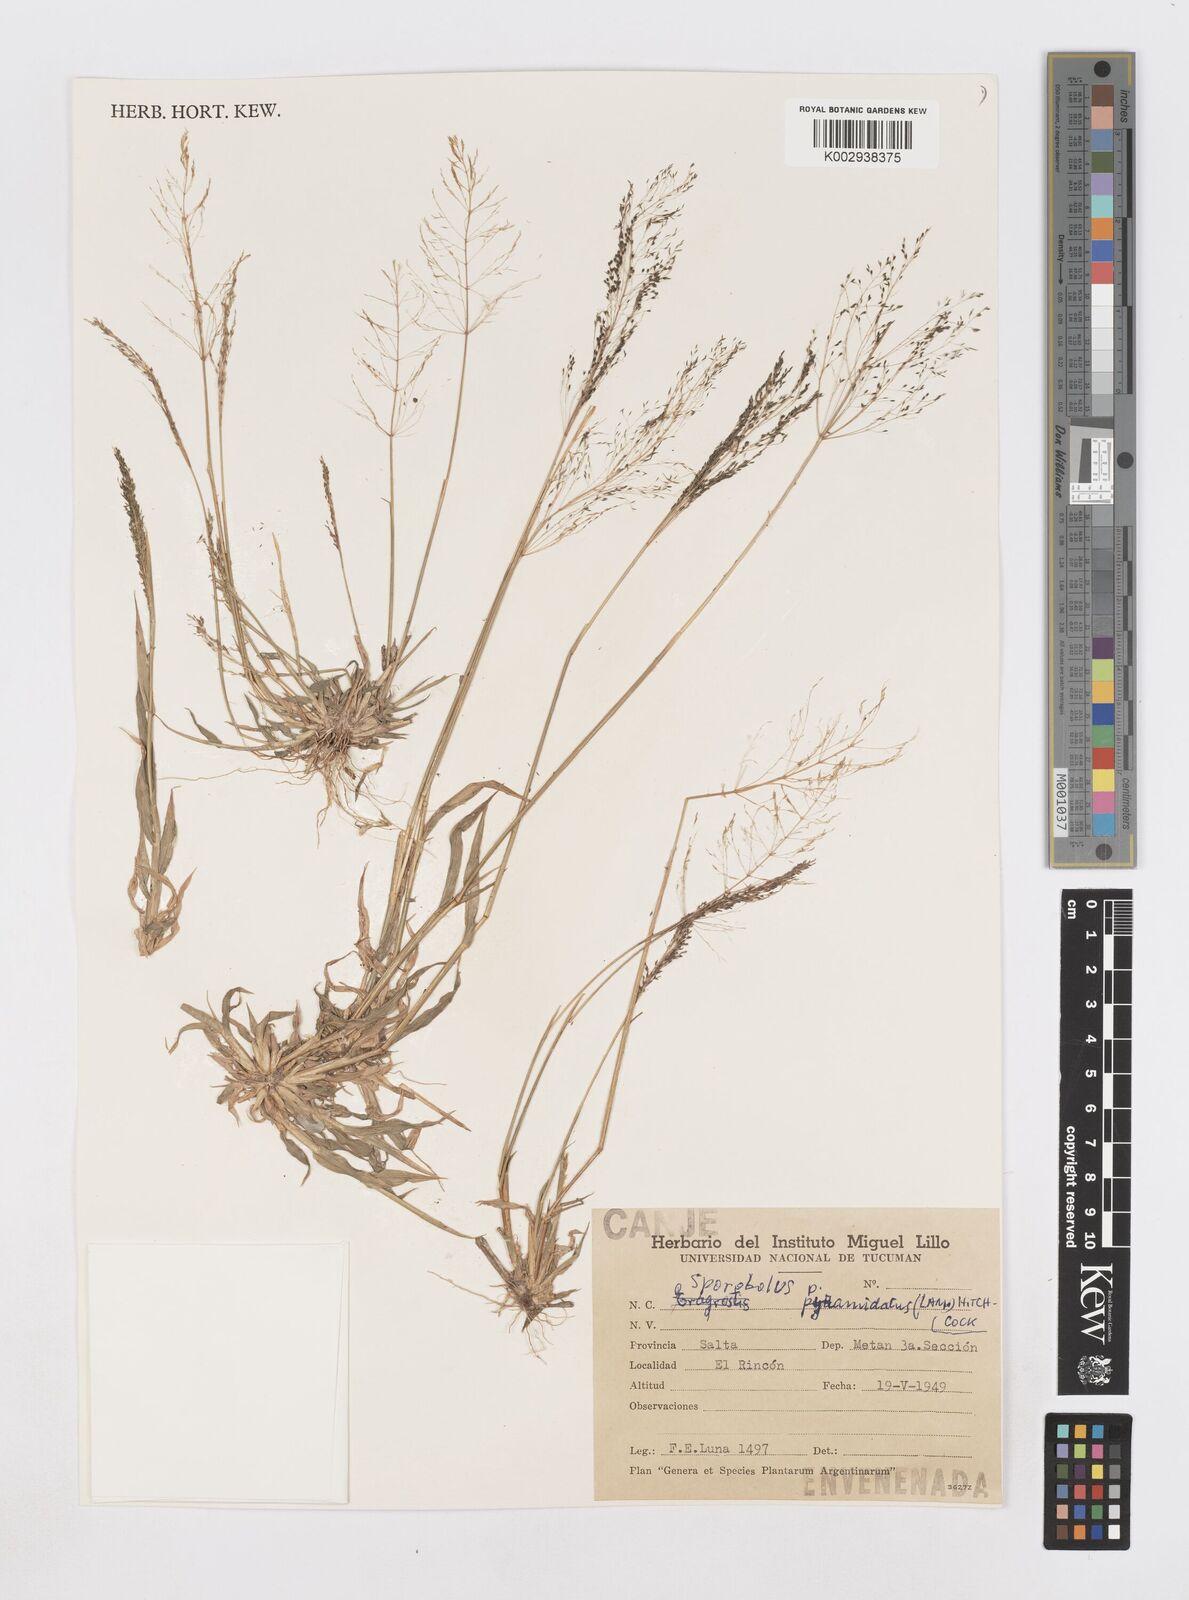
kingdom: Plantae
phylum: Tracheophyta
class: Liliopsida
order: Poales
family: Poaceae
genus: Sporobolus
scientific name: Sporobolus pyramidatus
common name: Whorled dropseed
